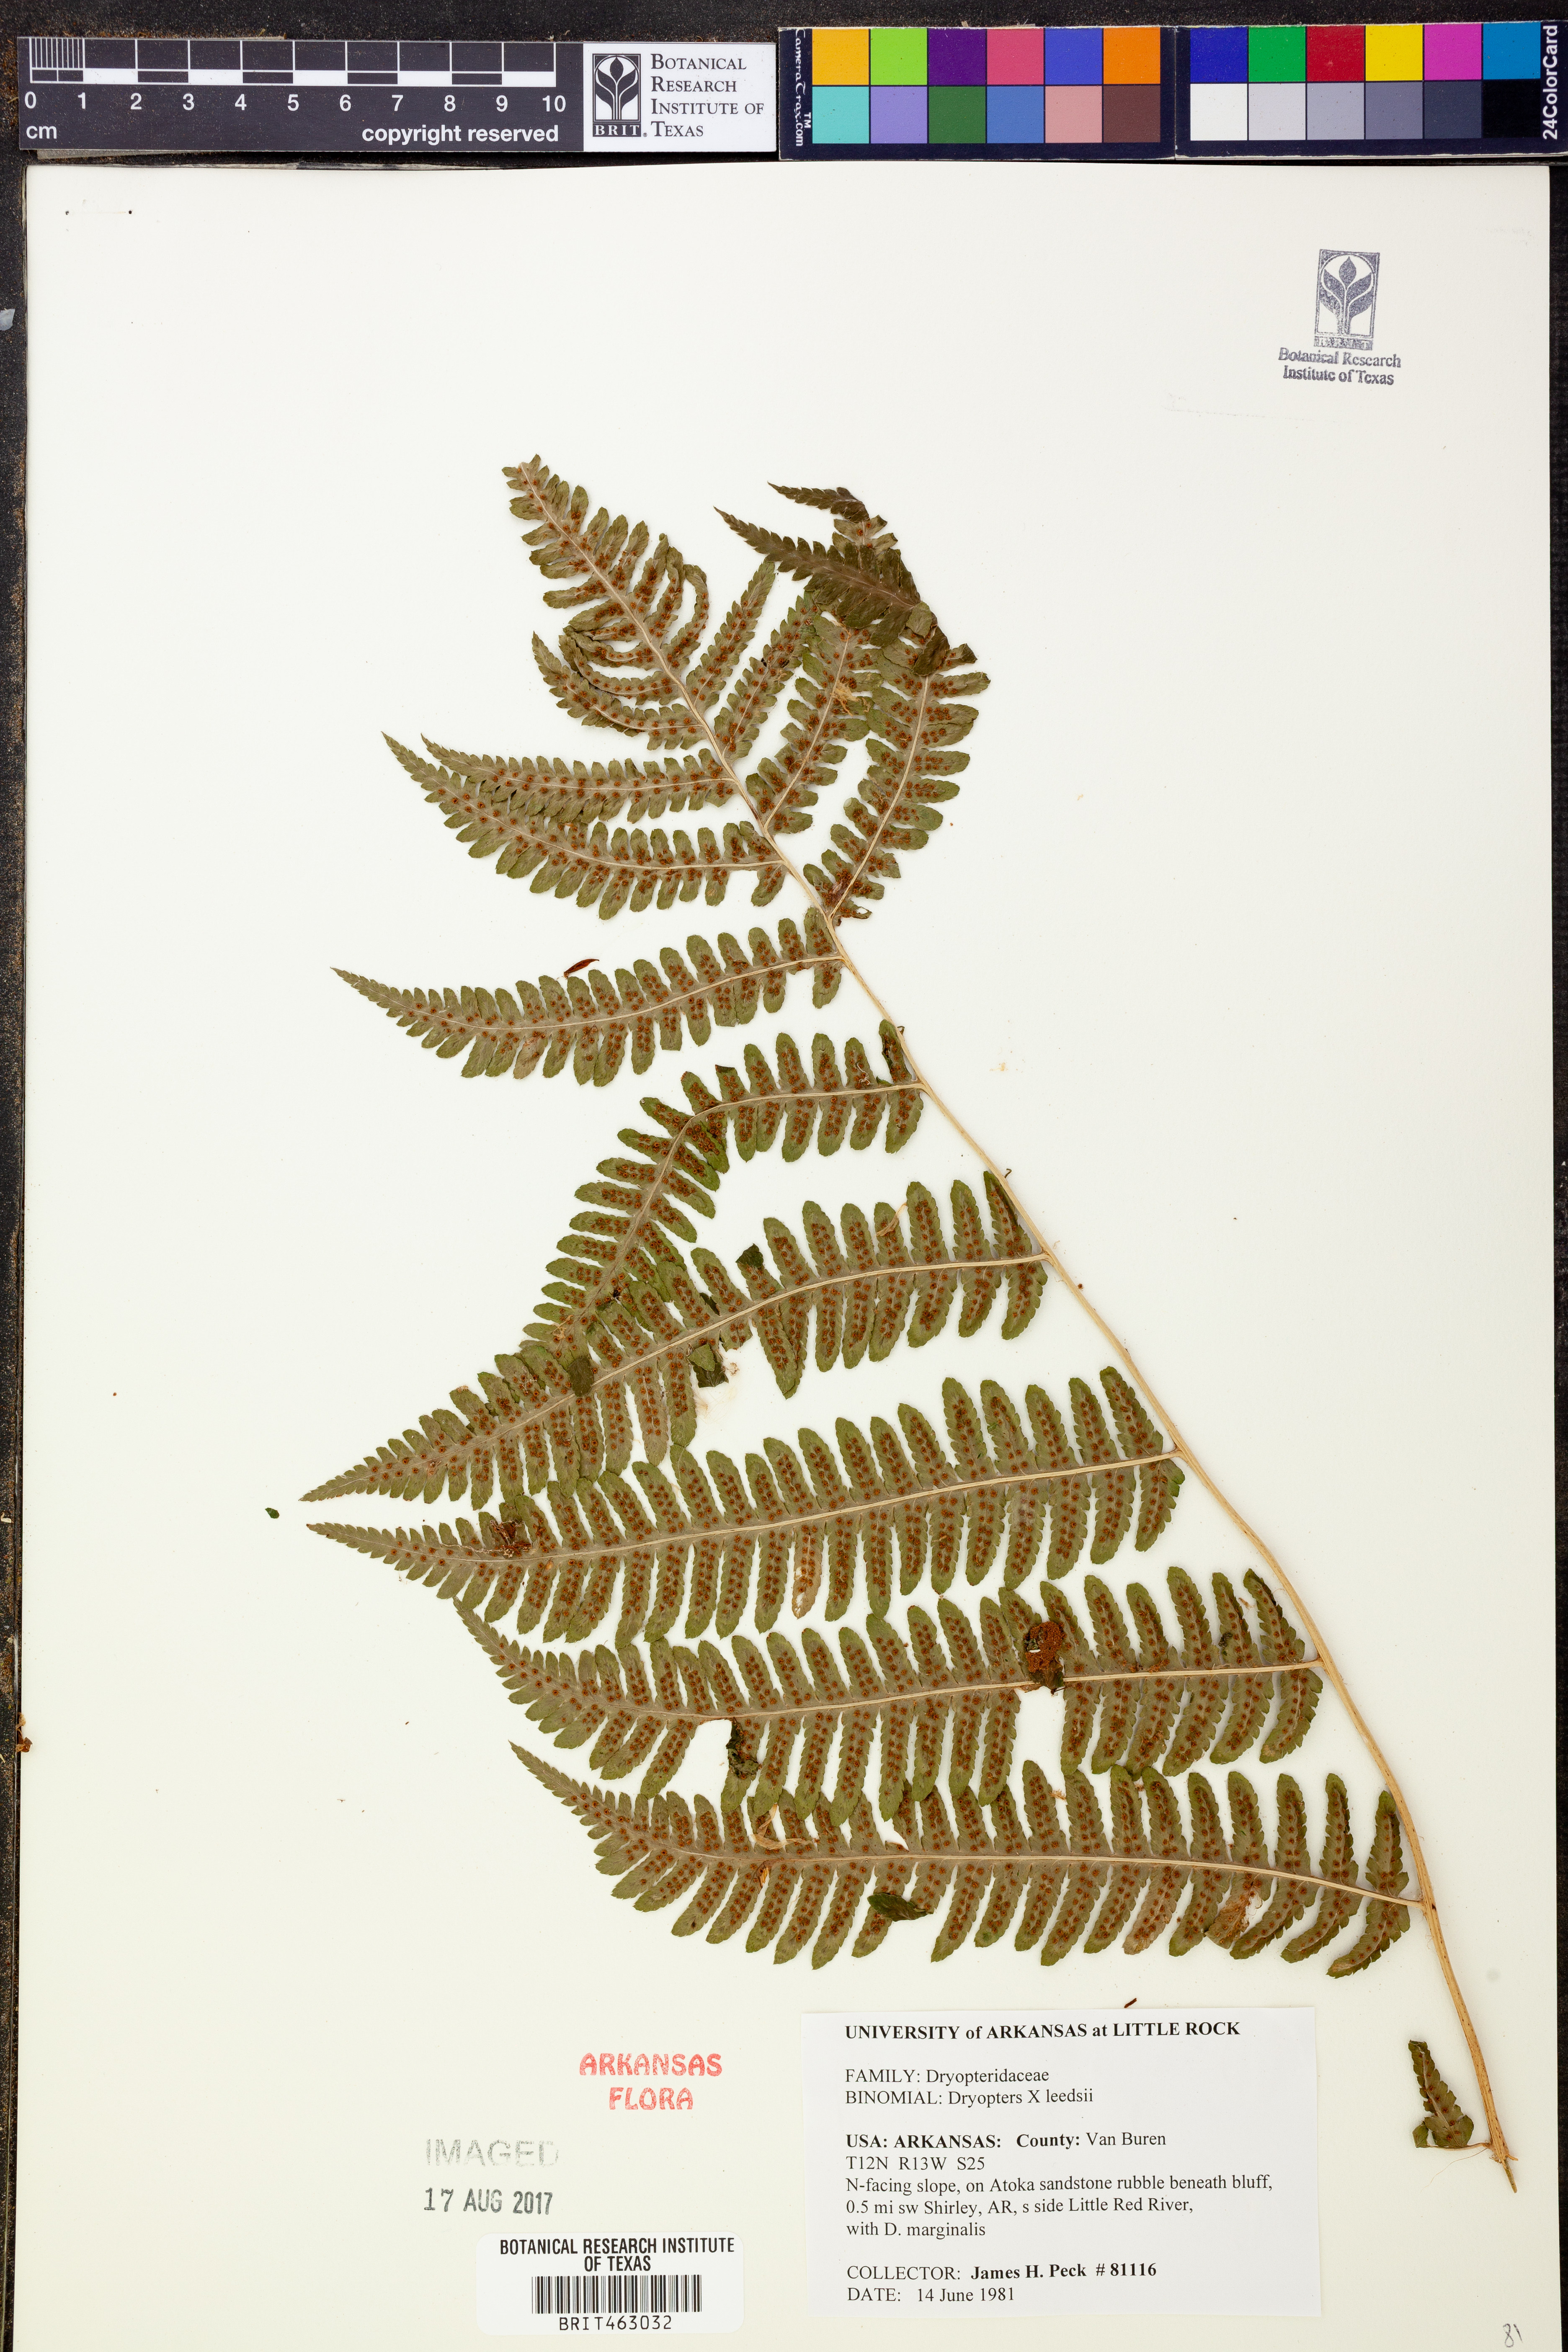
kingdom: Plantae
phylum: Tracheophyta
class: Polypodiopsida
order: Polypodiales
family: Dryopteridaceae
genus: Dryopteris
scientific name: Dryopteris
